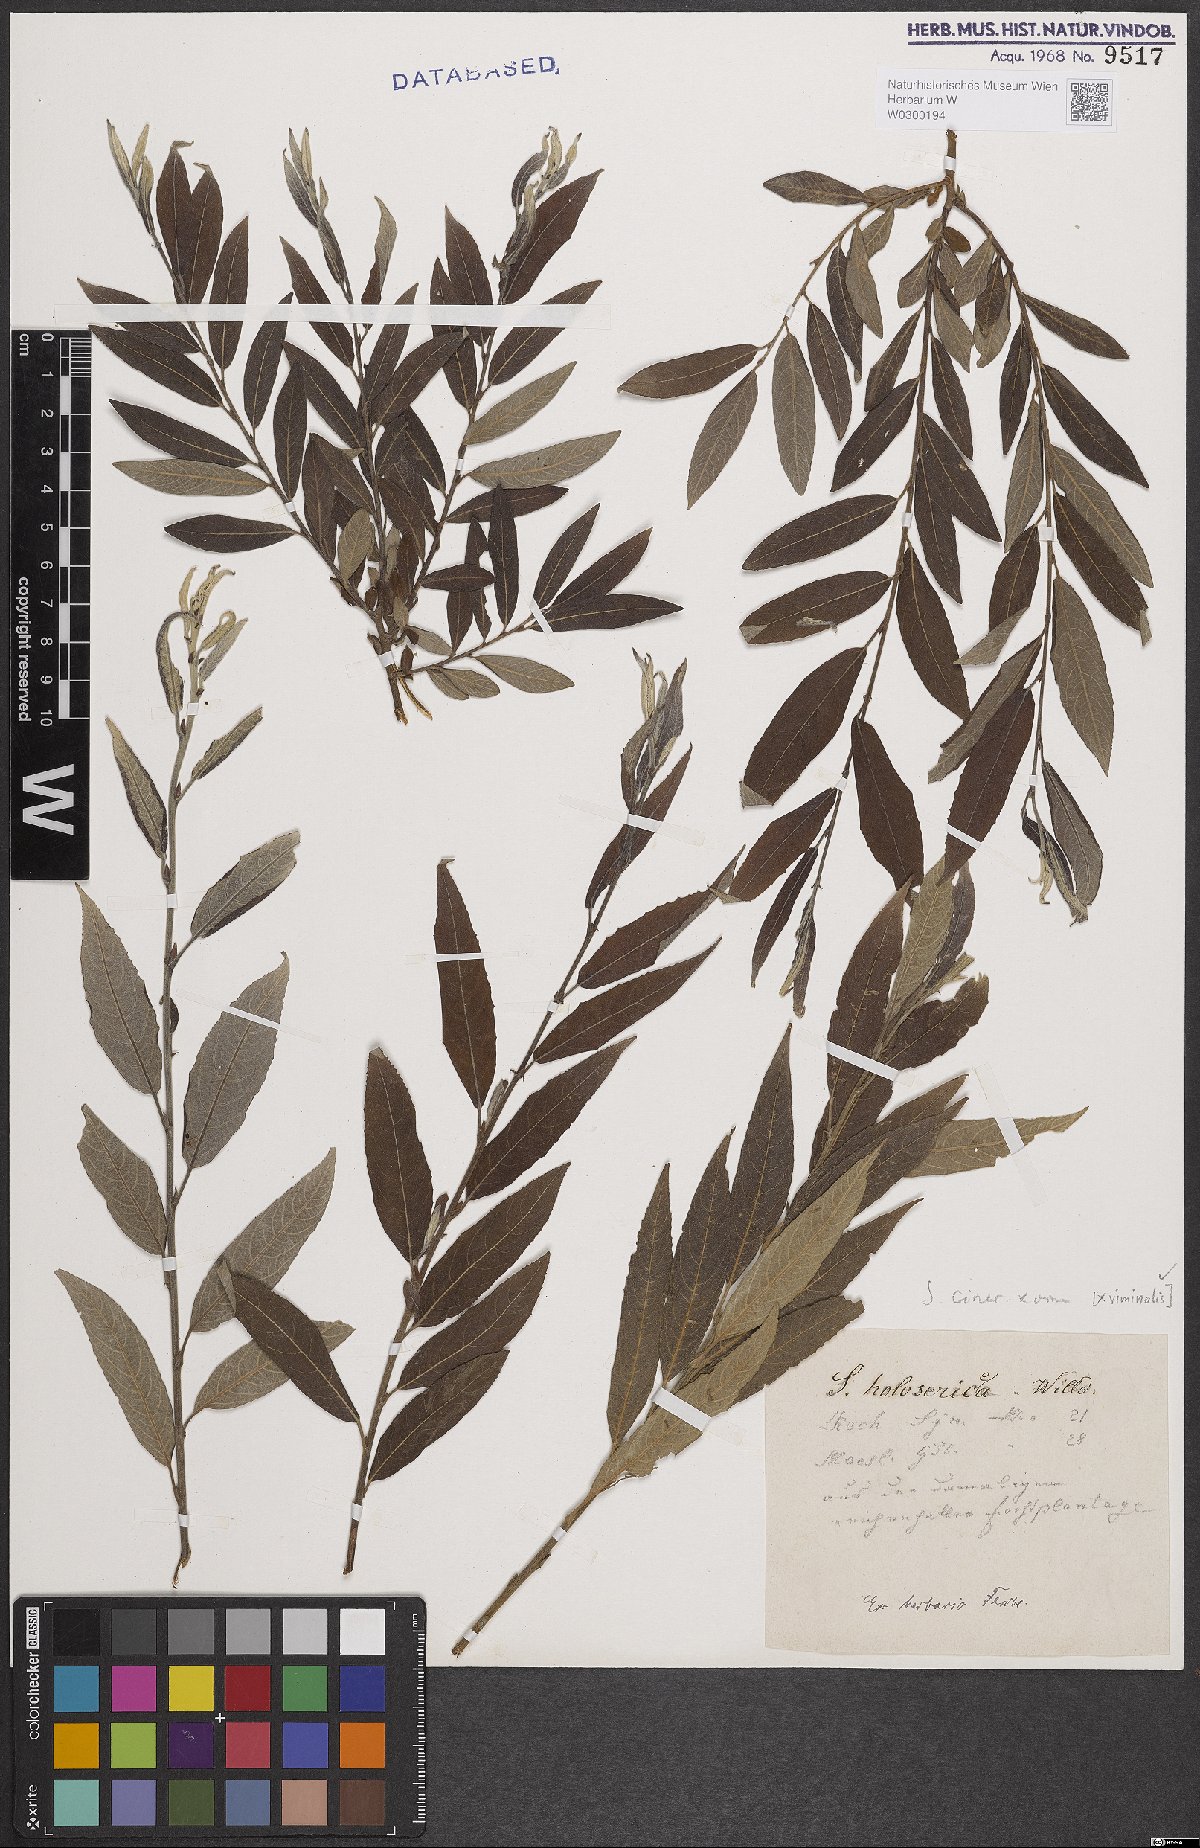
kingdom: Plantae
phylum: Tracheophyta
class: Magnoliopsida
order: Malpighiales
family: Salicaceae
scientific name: Salicaceae
